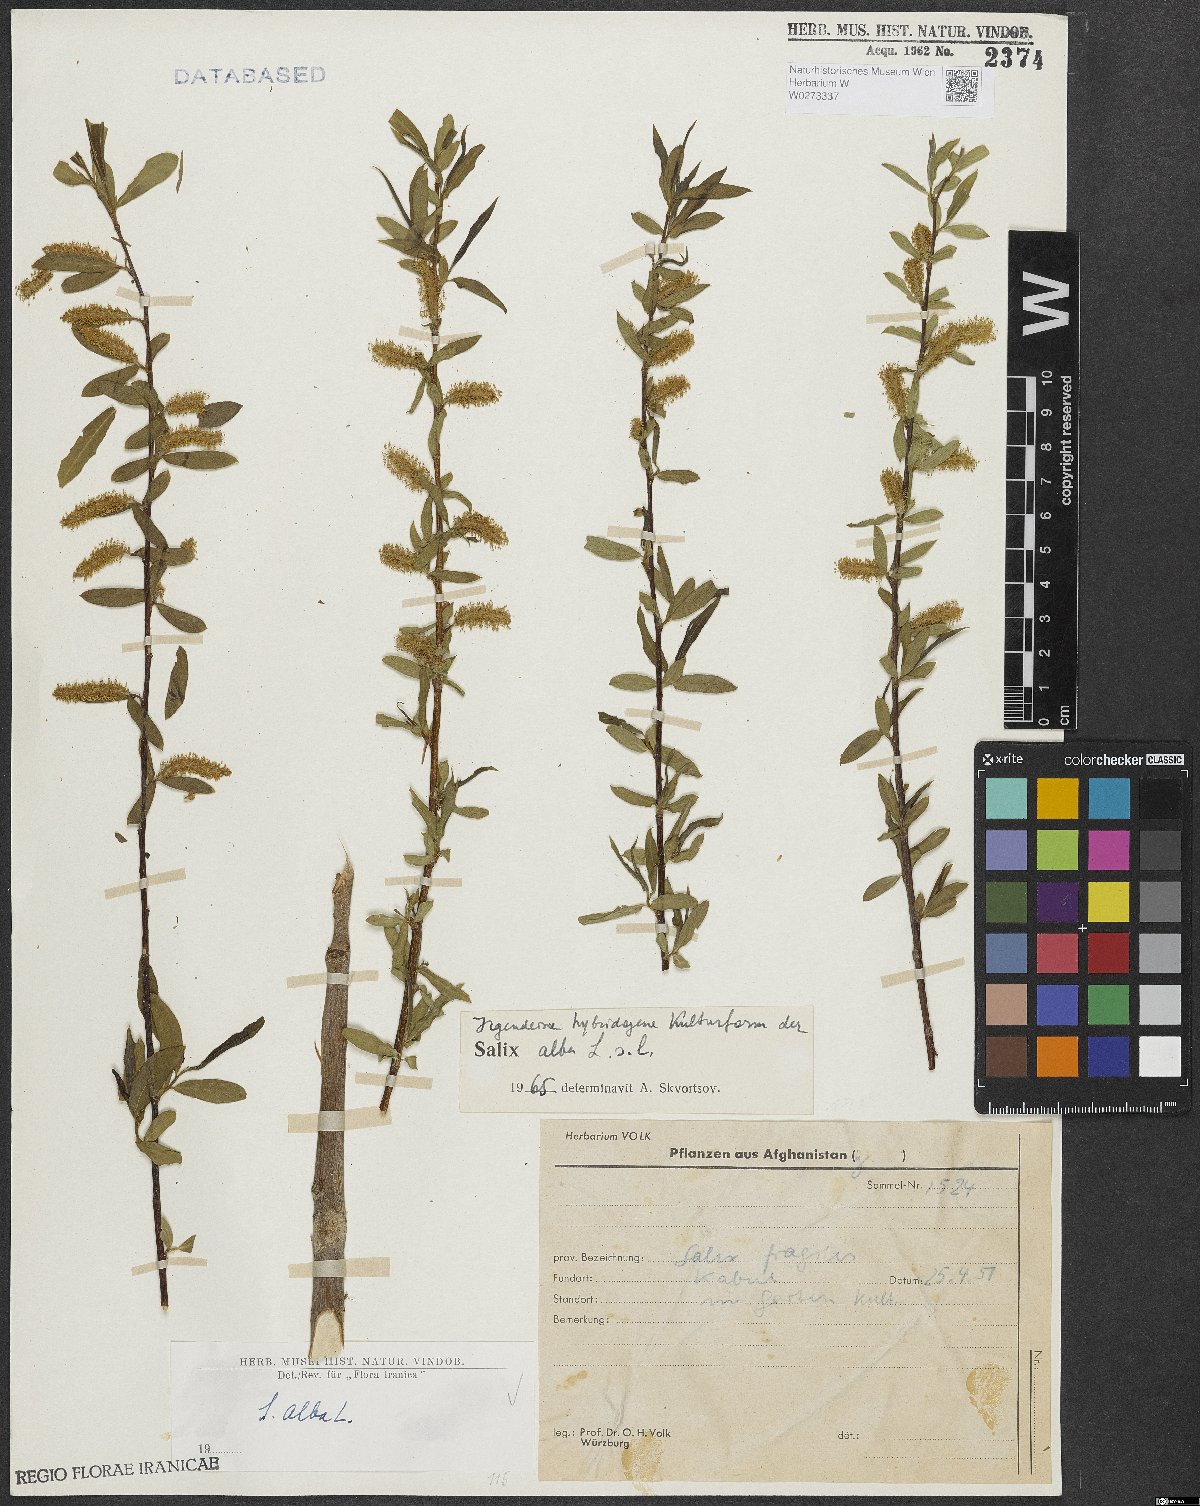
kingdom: Plantae
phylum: Tracheophyta
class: Magnoliopsida
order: Malpighiales
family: Salicaceae
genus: Salix
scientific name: Salix alba
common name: White willow
